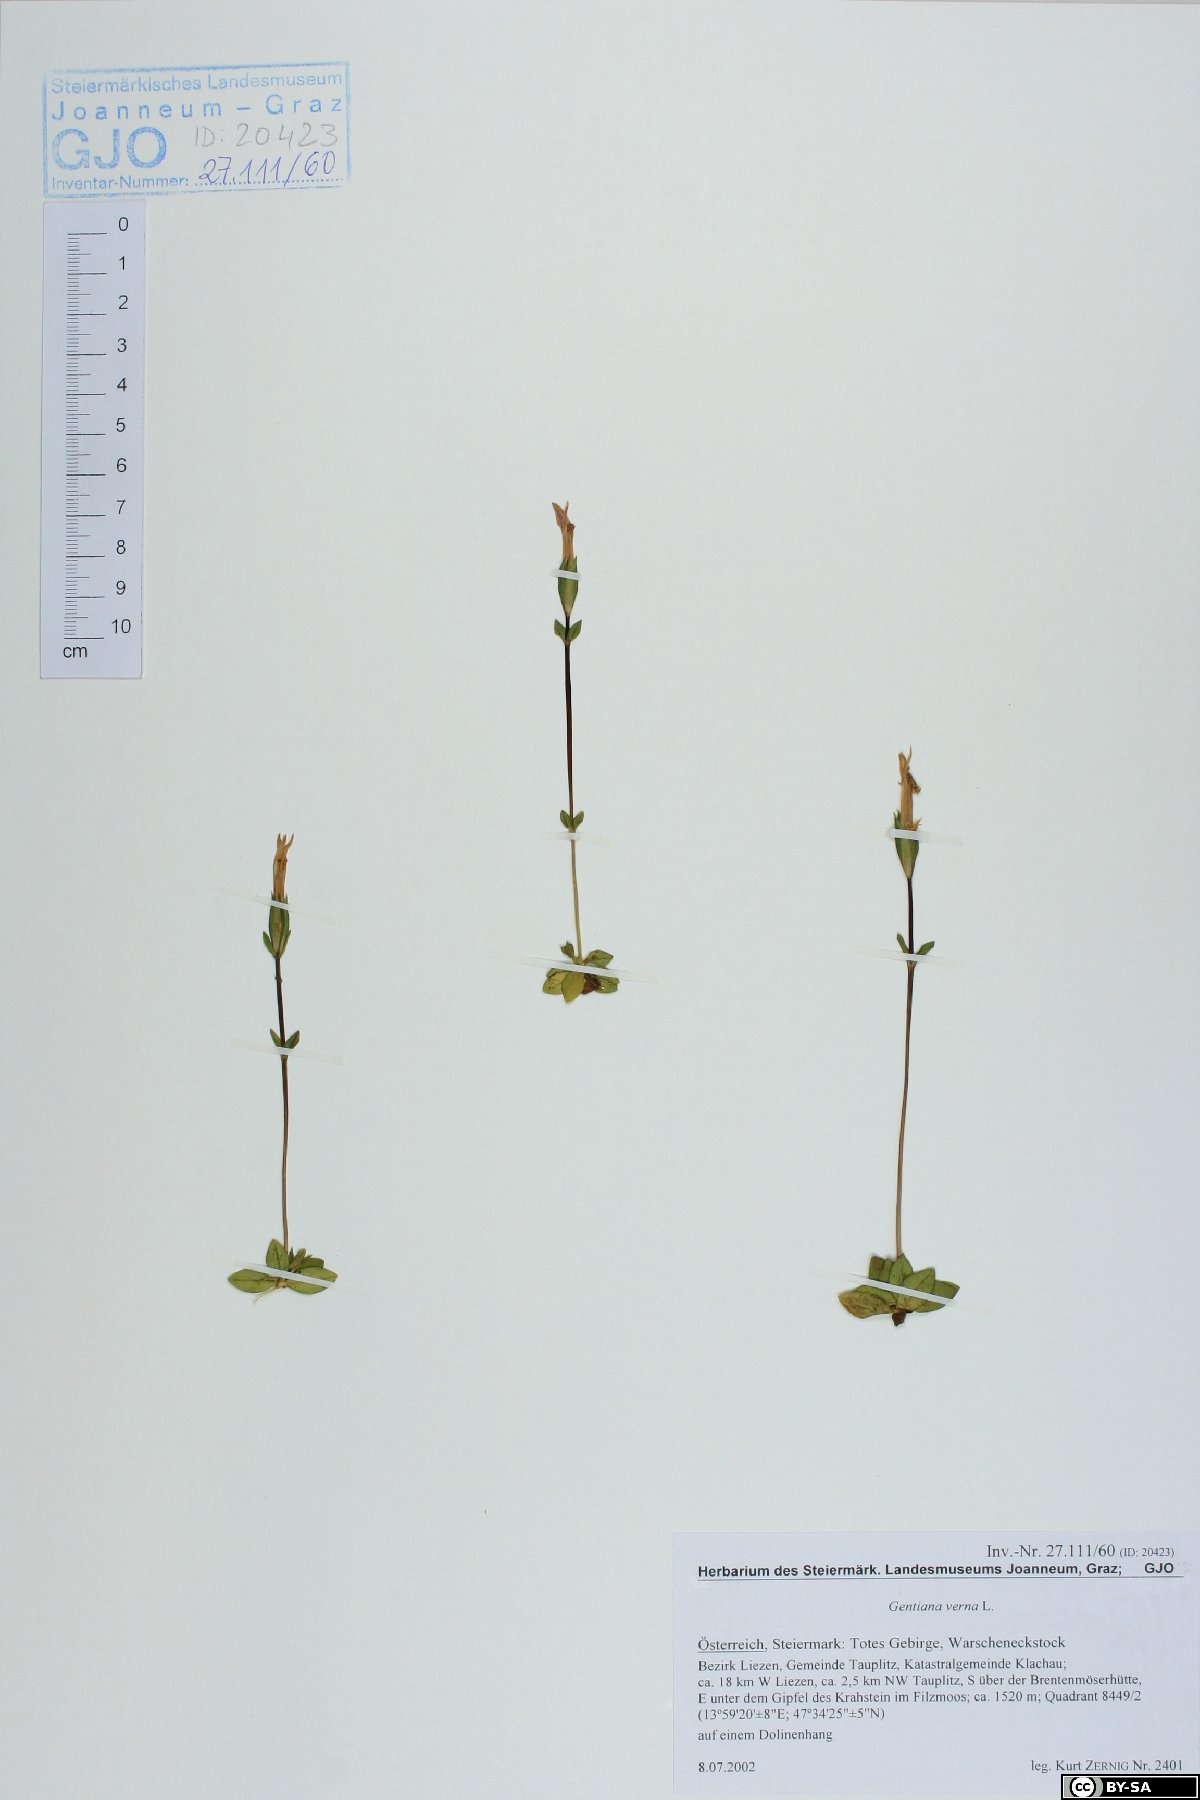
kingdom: Plantae
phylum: Tracheophyta
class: Magnoliopsida
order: Gentianales
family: Gentianaceae
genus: Gentiana
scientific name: Gentiana verna
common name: Spring gentian
